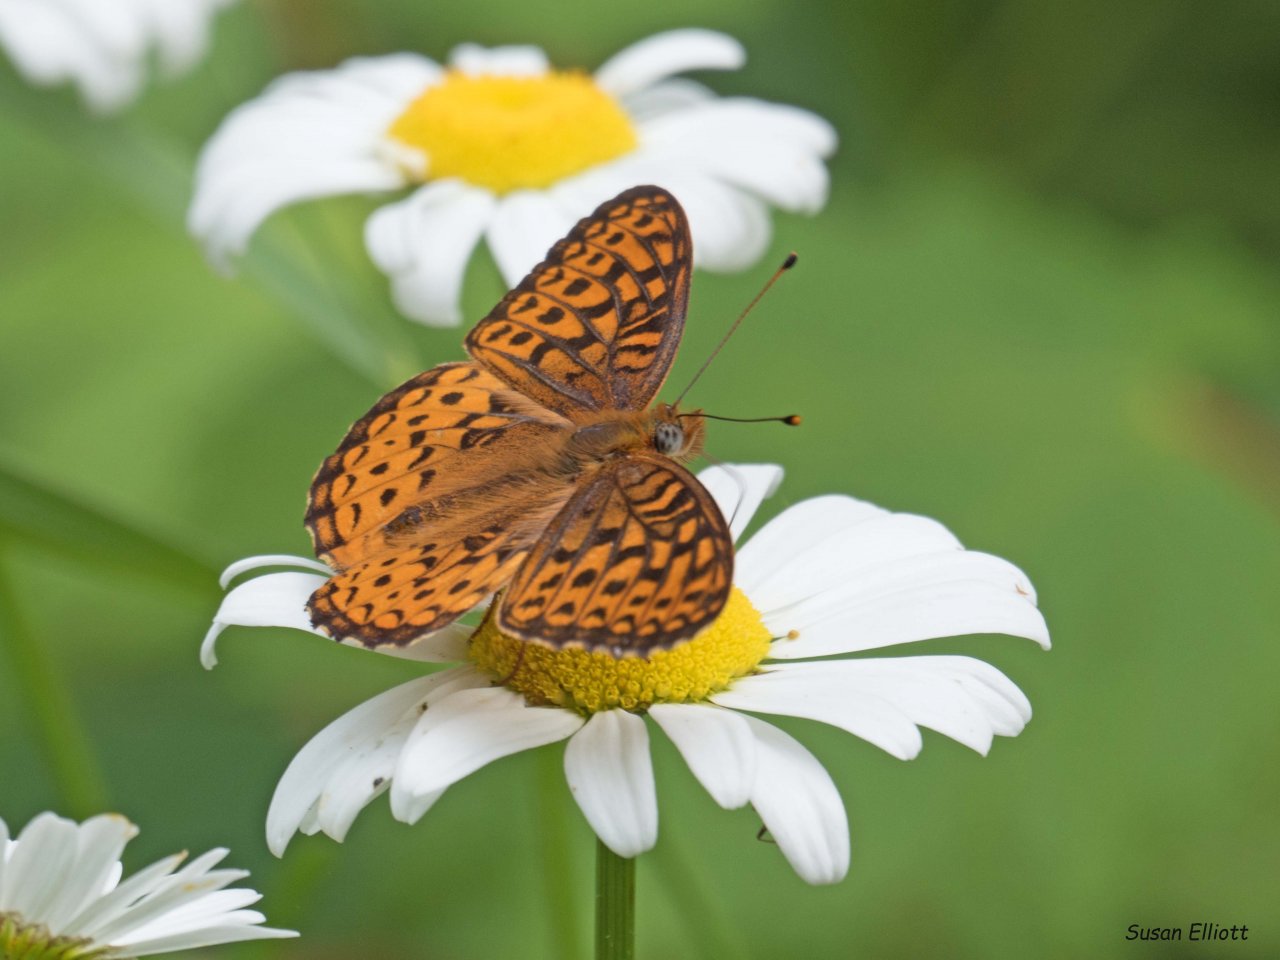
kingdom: Animalia
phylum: Arthropoda
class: Insecta
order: Lepidoptera
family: Nymphalidae
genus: Speyeria
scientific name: Speyeria atlantis
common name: Atlantis Fritillary
